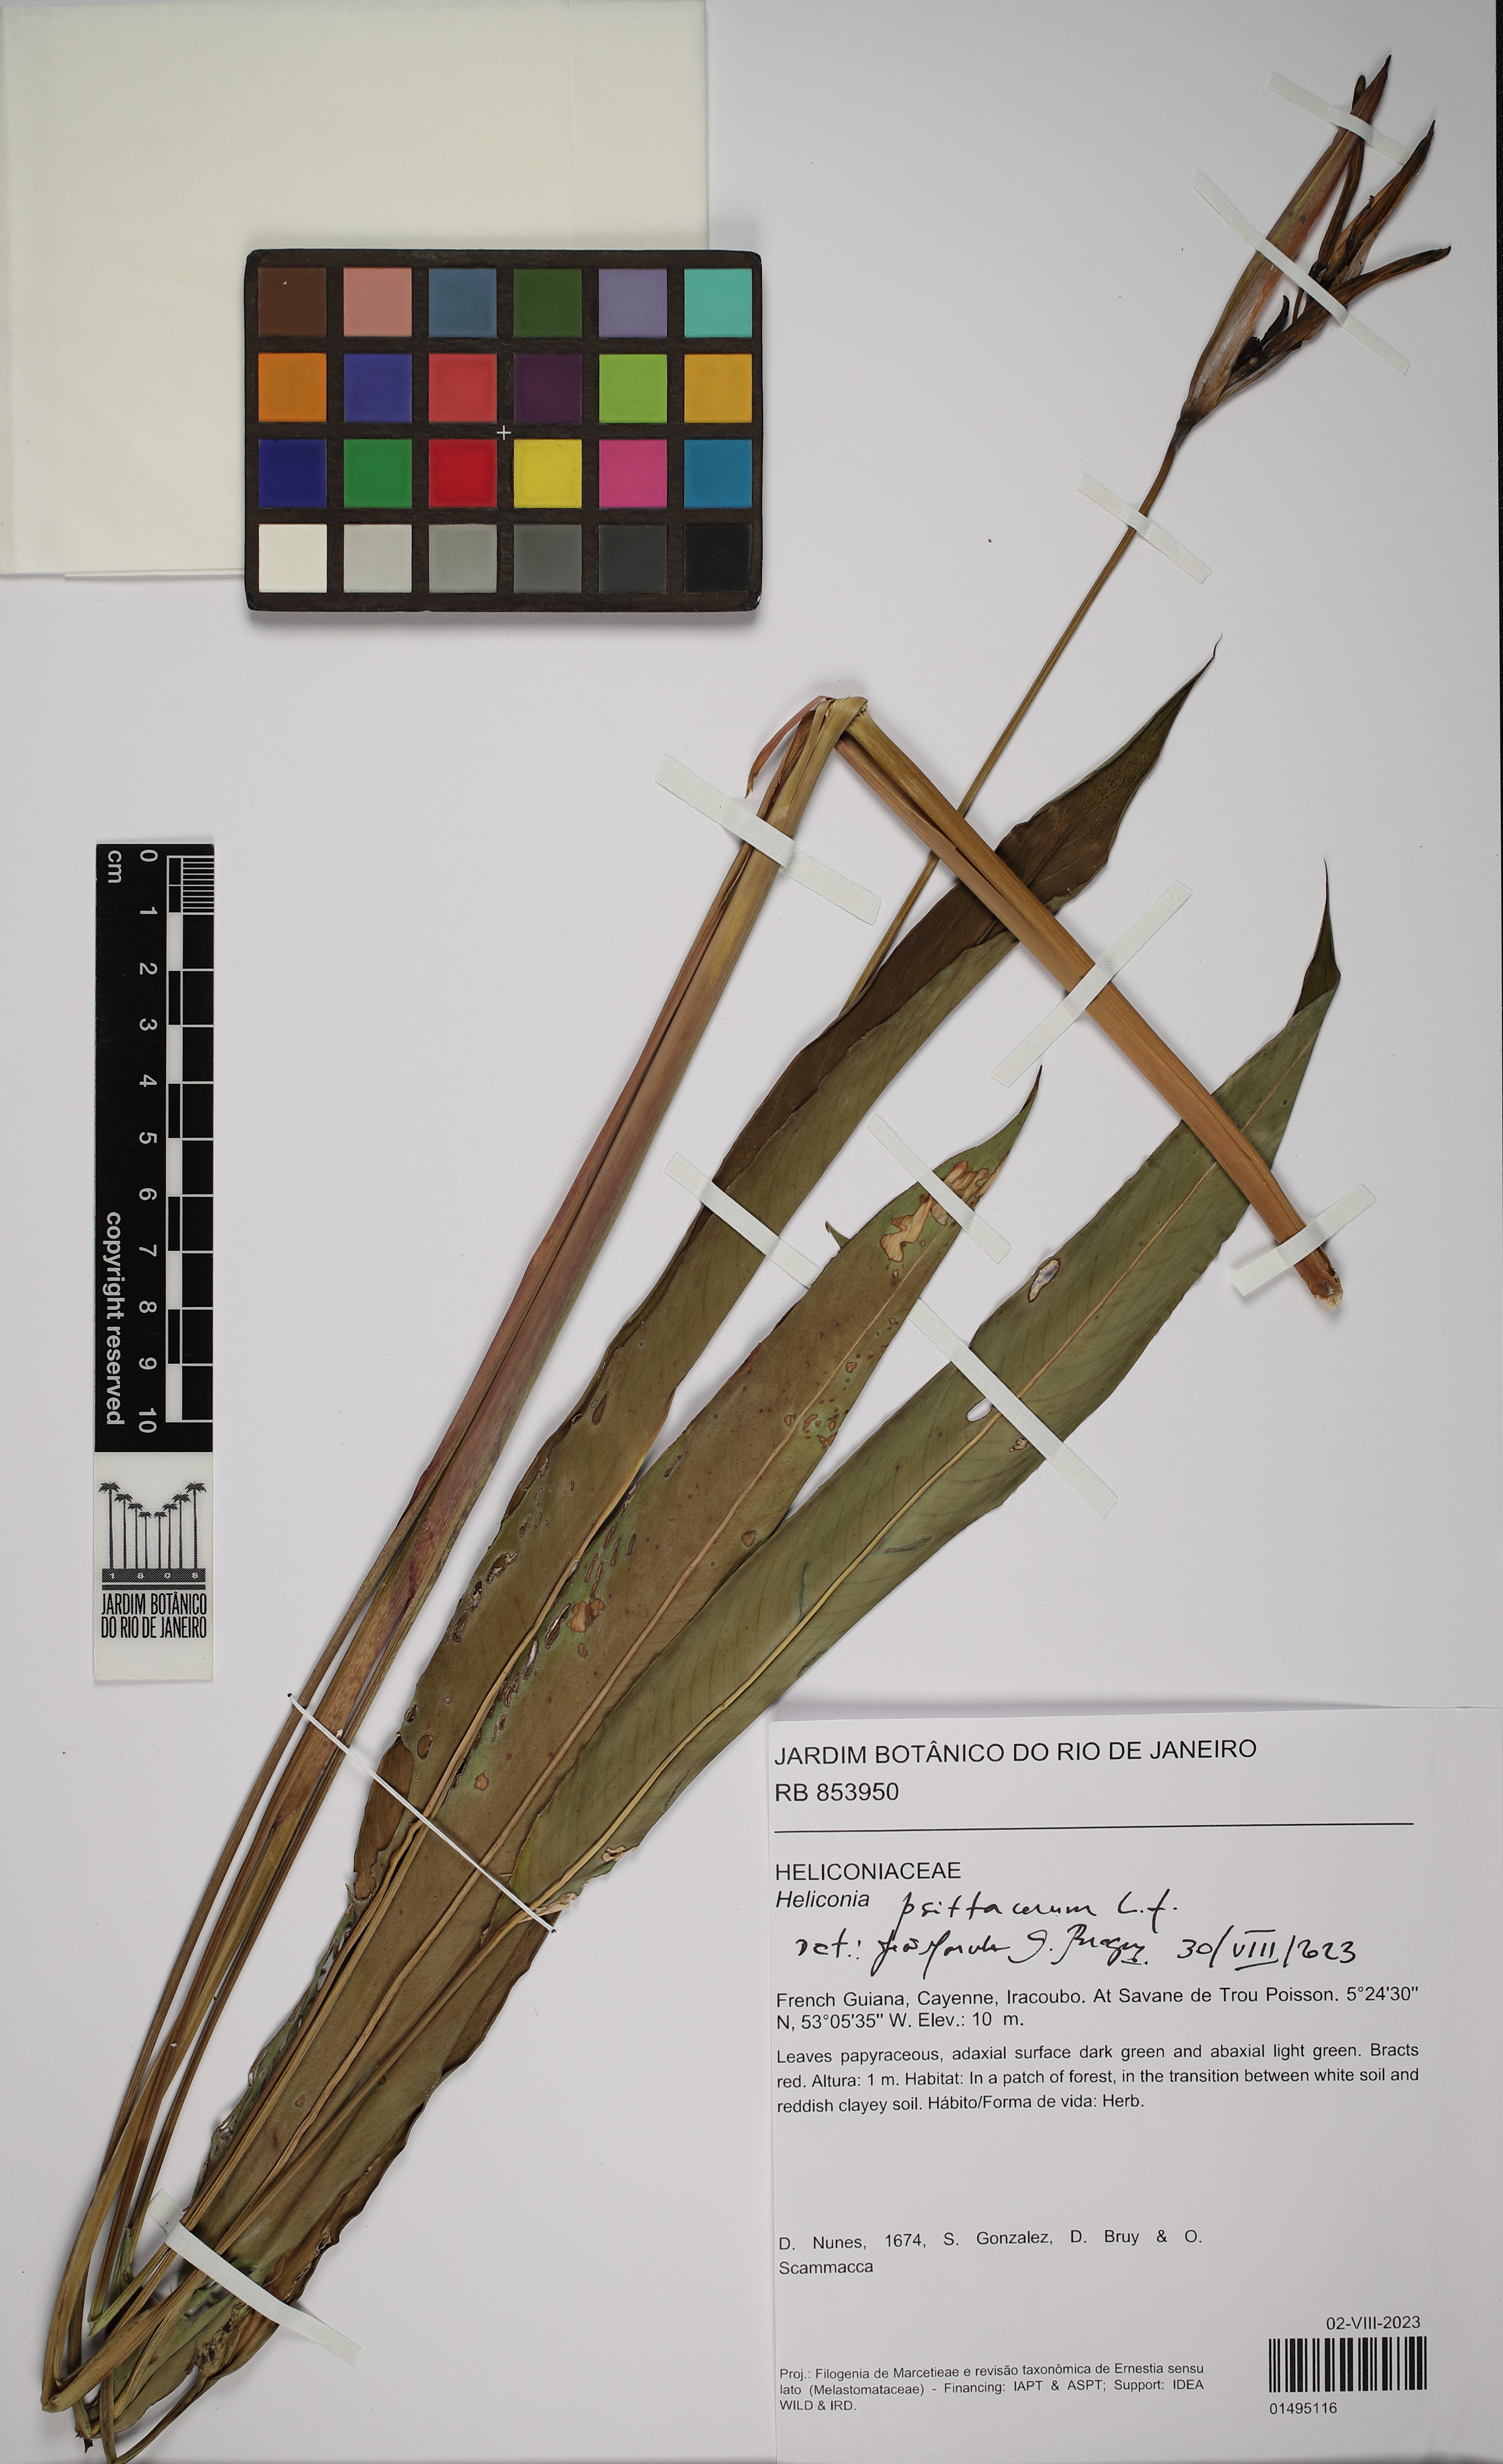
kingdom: Plantae
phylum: Tracheophyta
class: Liliopsida
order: Zingiberales
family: Heliconiaceae
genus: Heliconia
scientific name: Heliconia psittacorum
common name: Parrot's-flower
